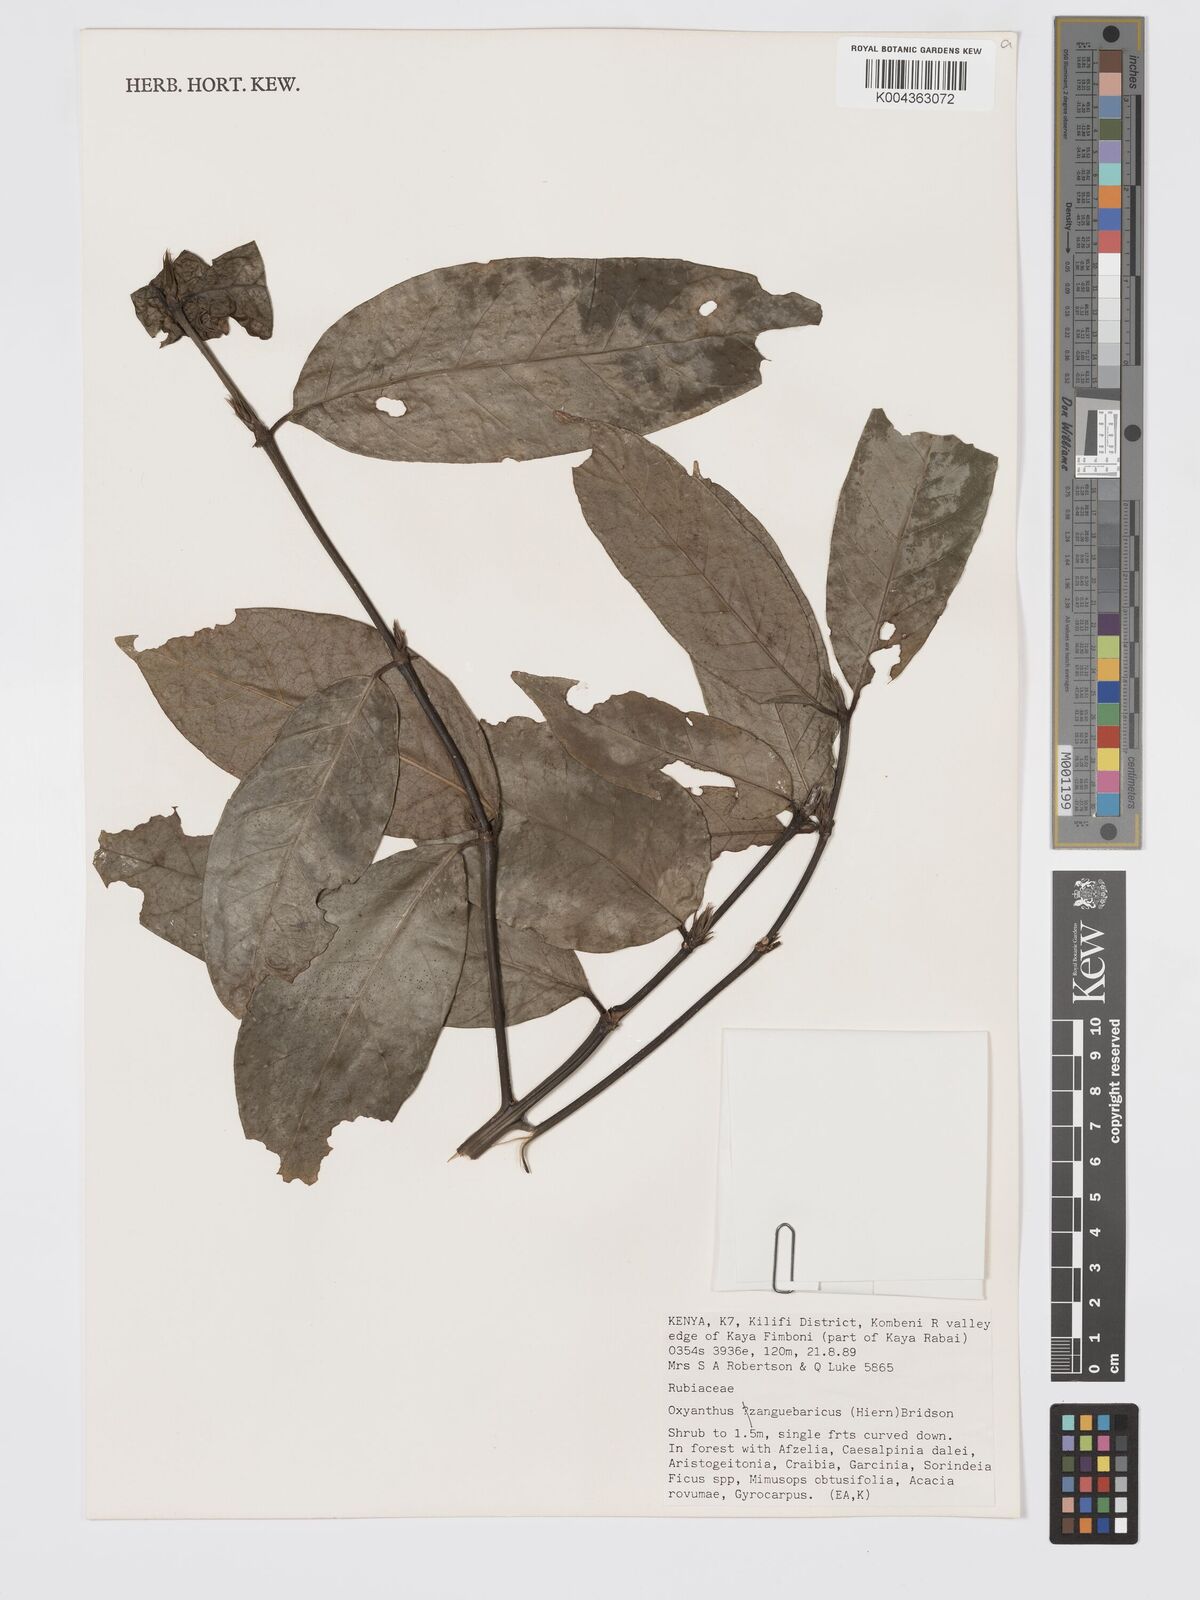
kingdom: Plantae
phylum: Tracheophyta
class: Magnoliopsida
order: Gentianales
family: Rubiaceae
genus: Oxyanthus
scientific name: Oxyanthus zanguebaricus
